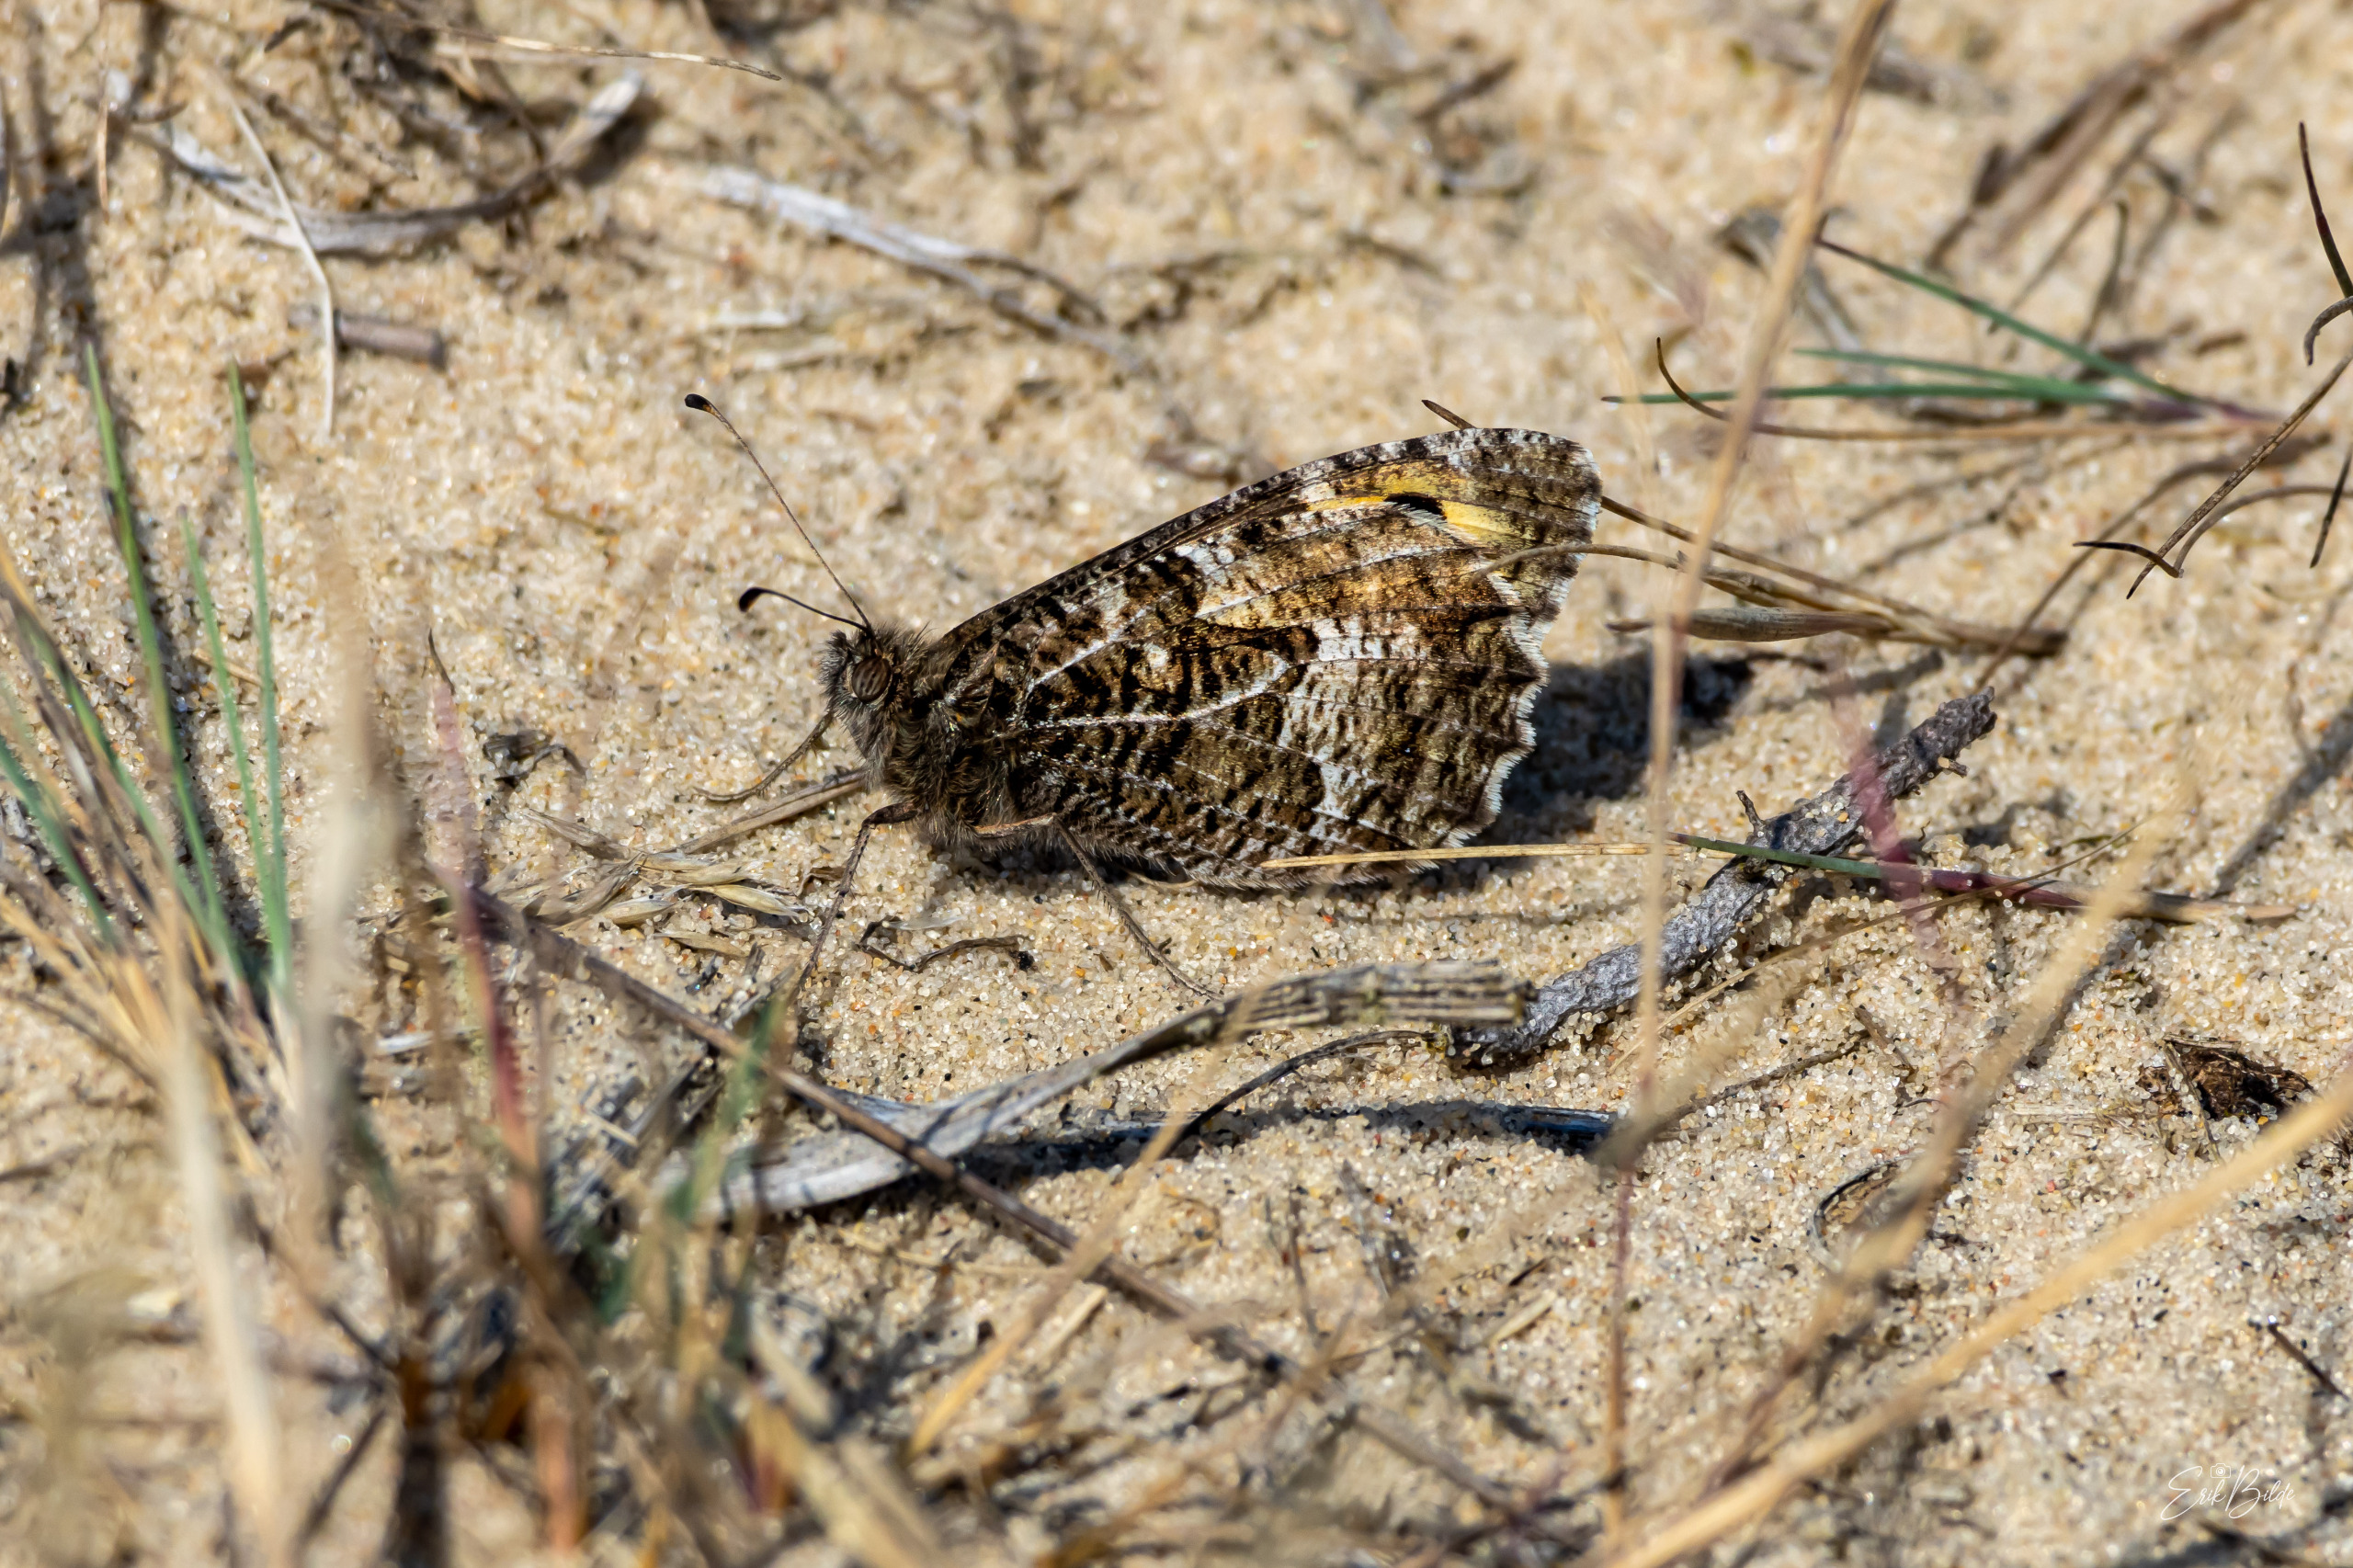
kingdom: Animalia
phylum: Arthropoda
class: Insecta
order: Lepidoptera
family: Nymphalidae
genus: Hipparchia
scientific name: Hipparchia semele
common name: Sandrandøje
